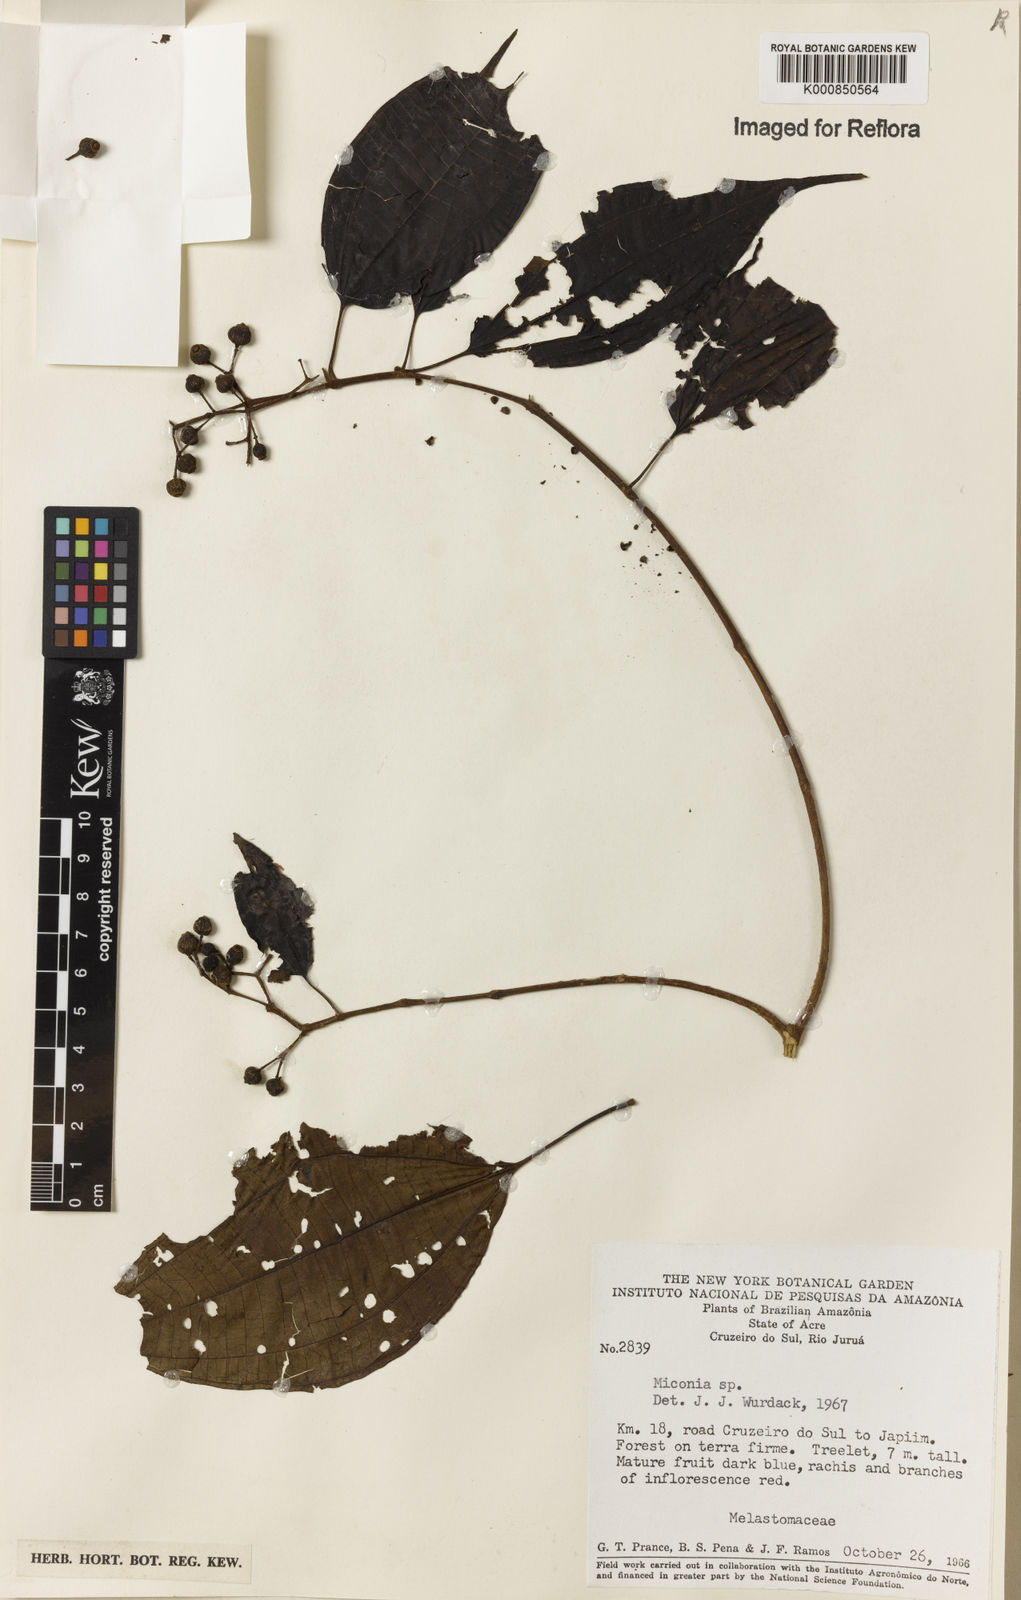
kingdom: Plantae
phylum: Tracheophyta
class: Magnoliopsida
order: Myrtales
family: Melastomataceae
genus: Miconia
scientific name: Miconia
